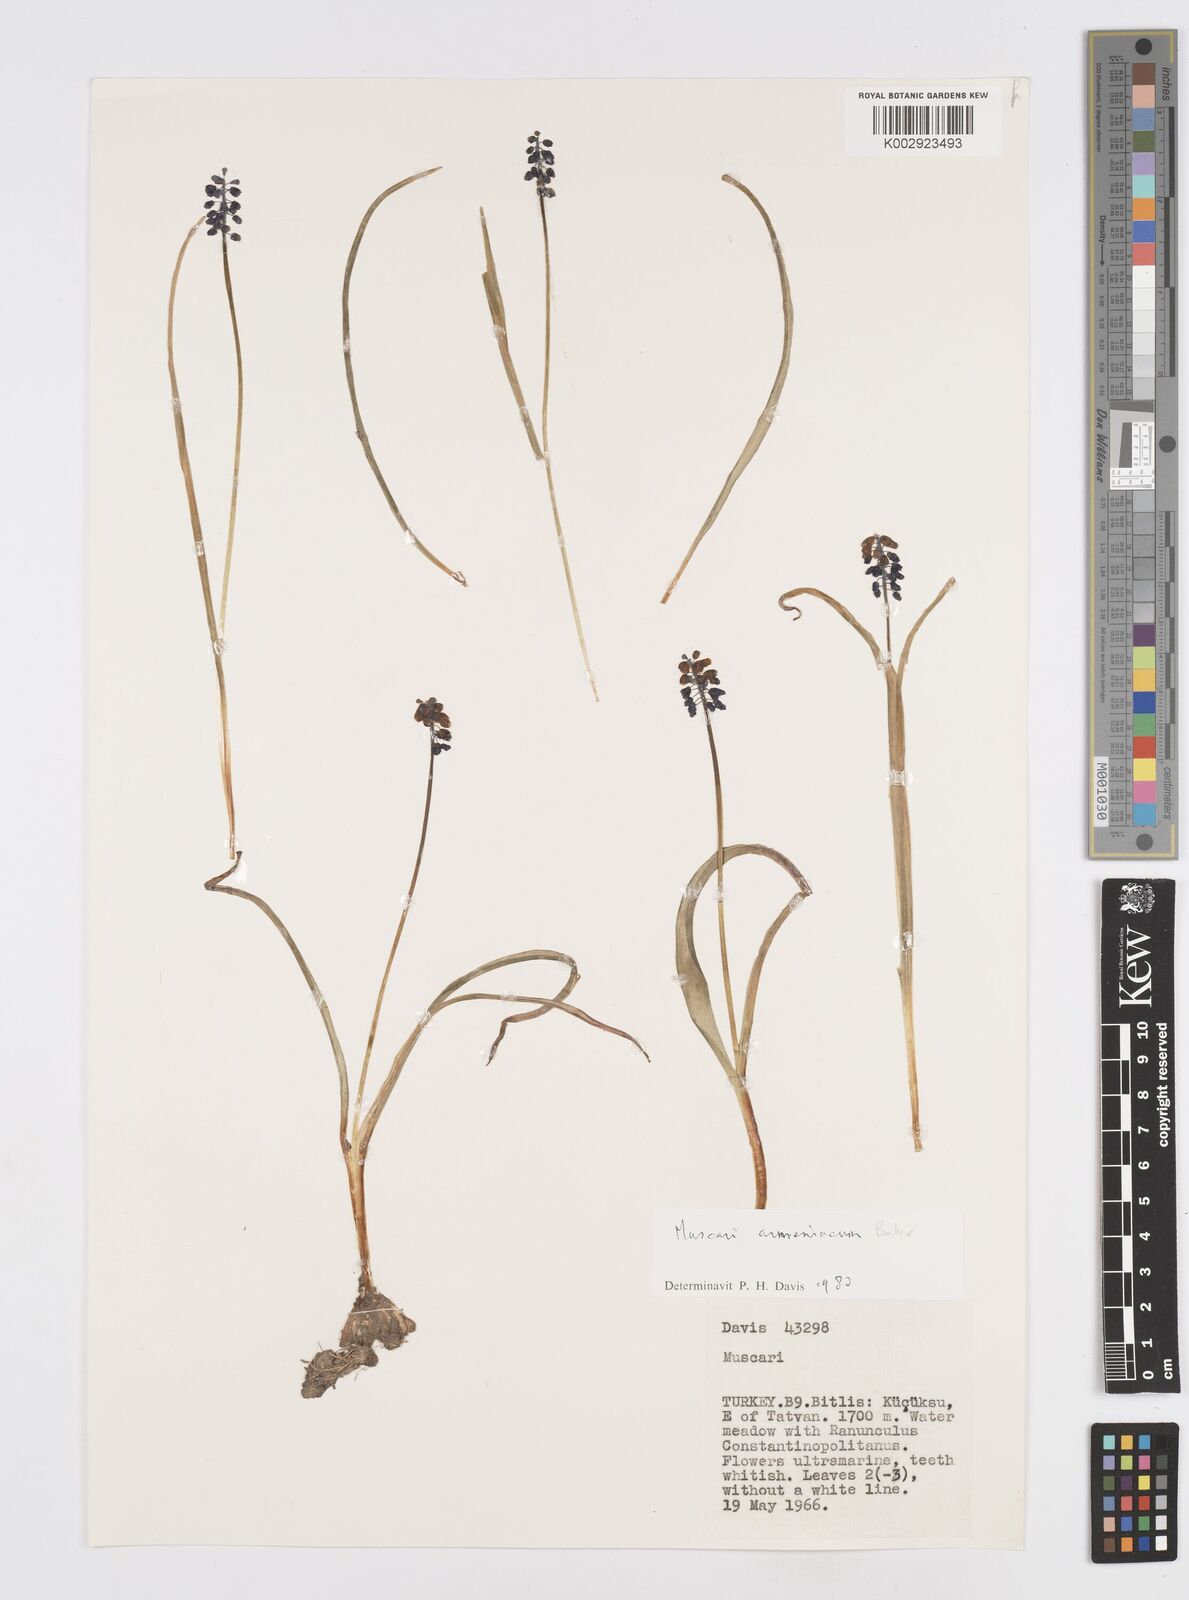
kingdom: Plantae
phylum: Tracheophyta
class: Liliopsida
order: Asparagales
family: Asparagaceae
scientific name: Asparagaceae
